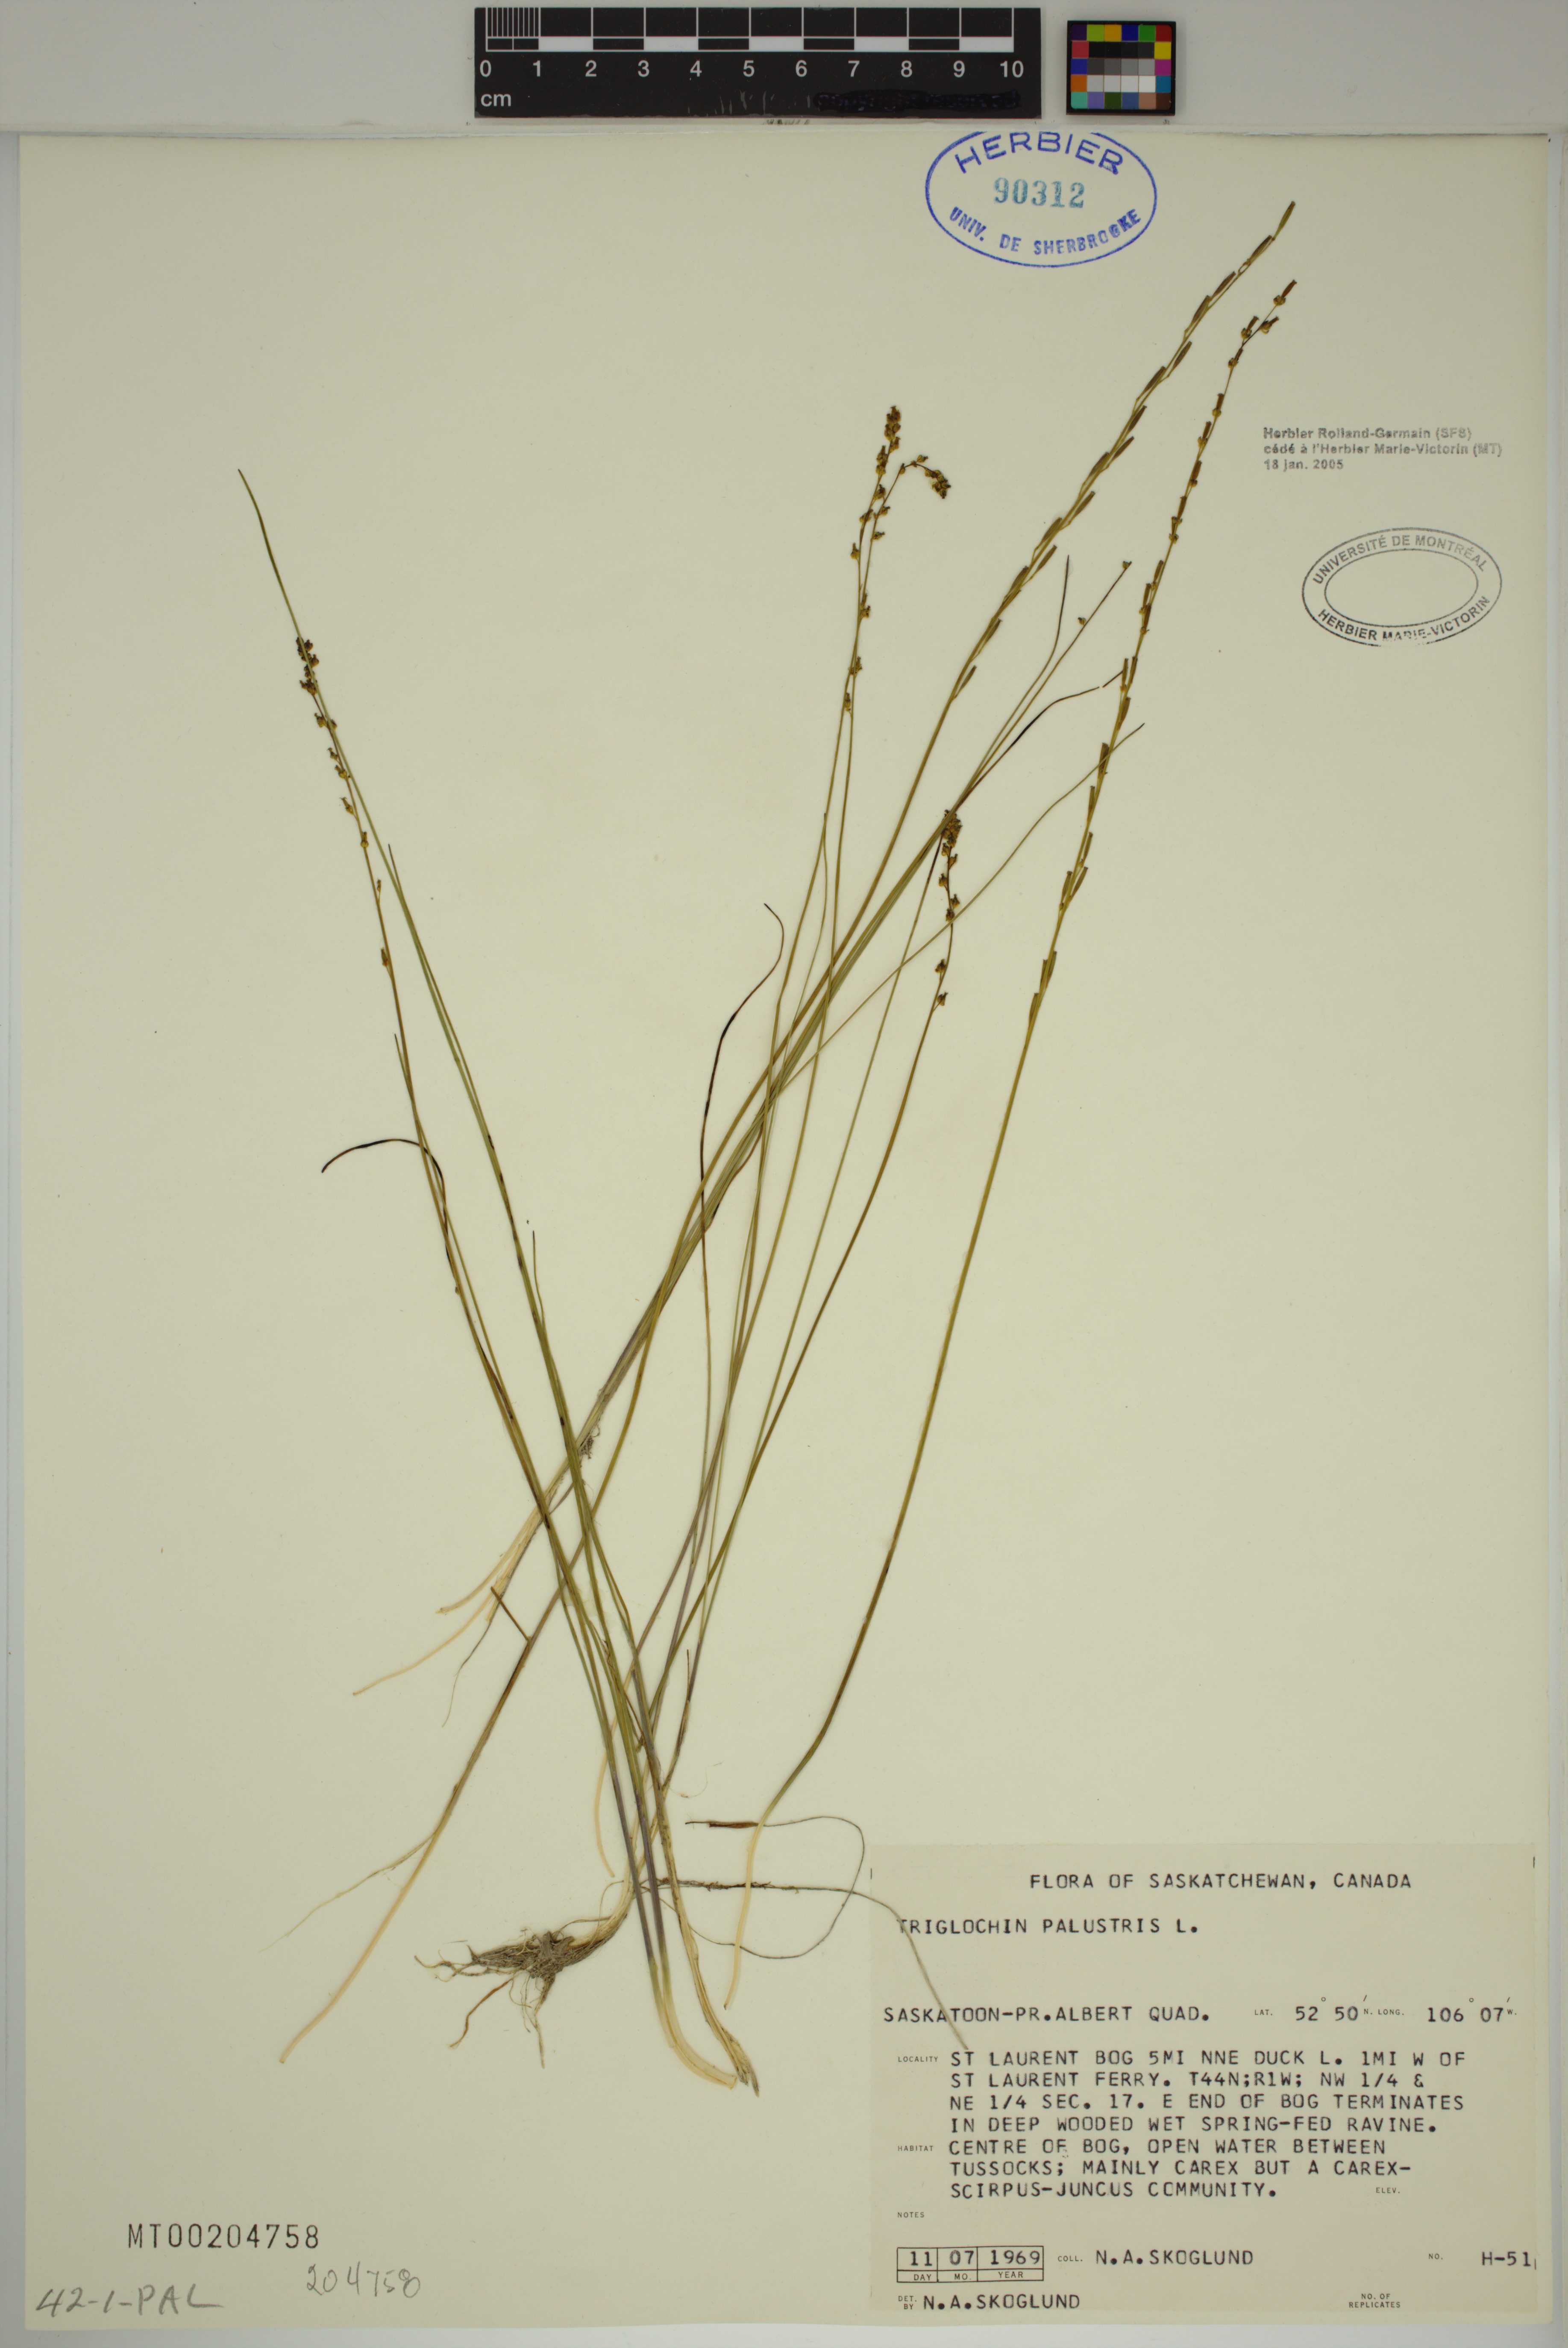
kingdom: Plantae
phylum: Tracheophyta
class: Liliopsida
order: Alismatales
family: Juncaginaceae
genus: Triglochin
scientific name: Triglochin palustris
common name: Marsh arrowgrass
